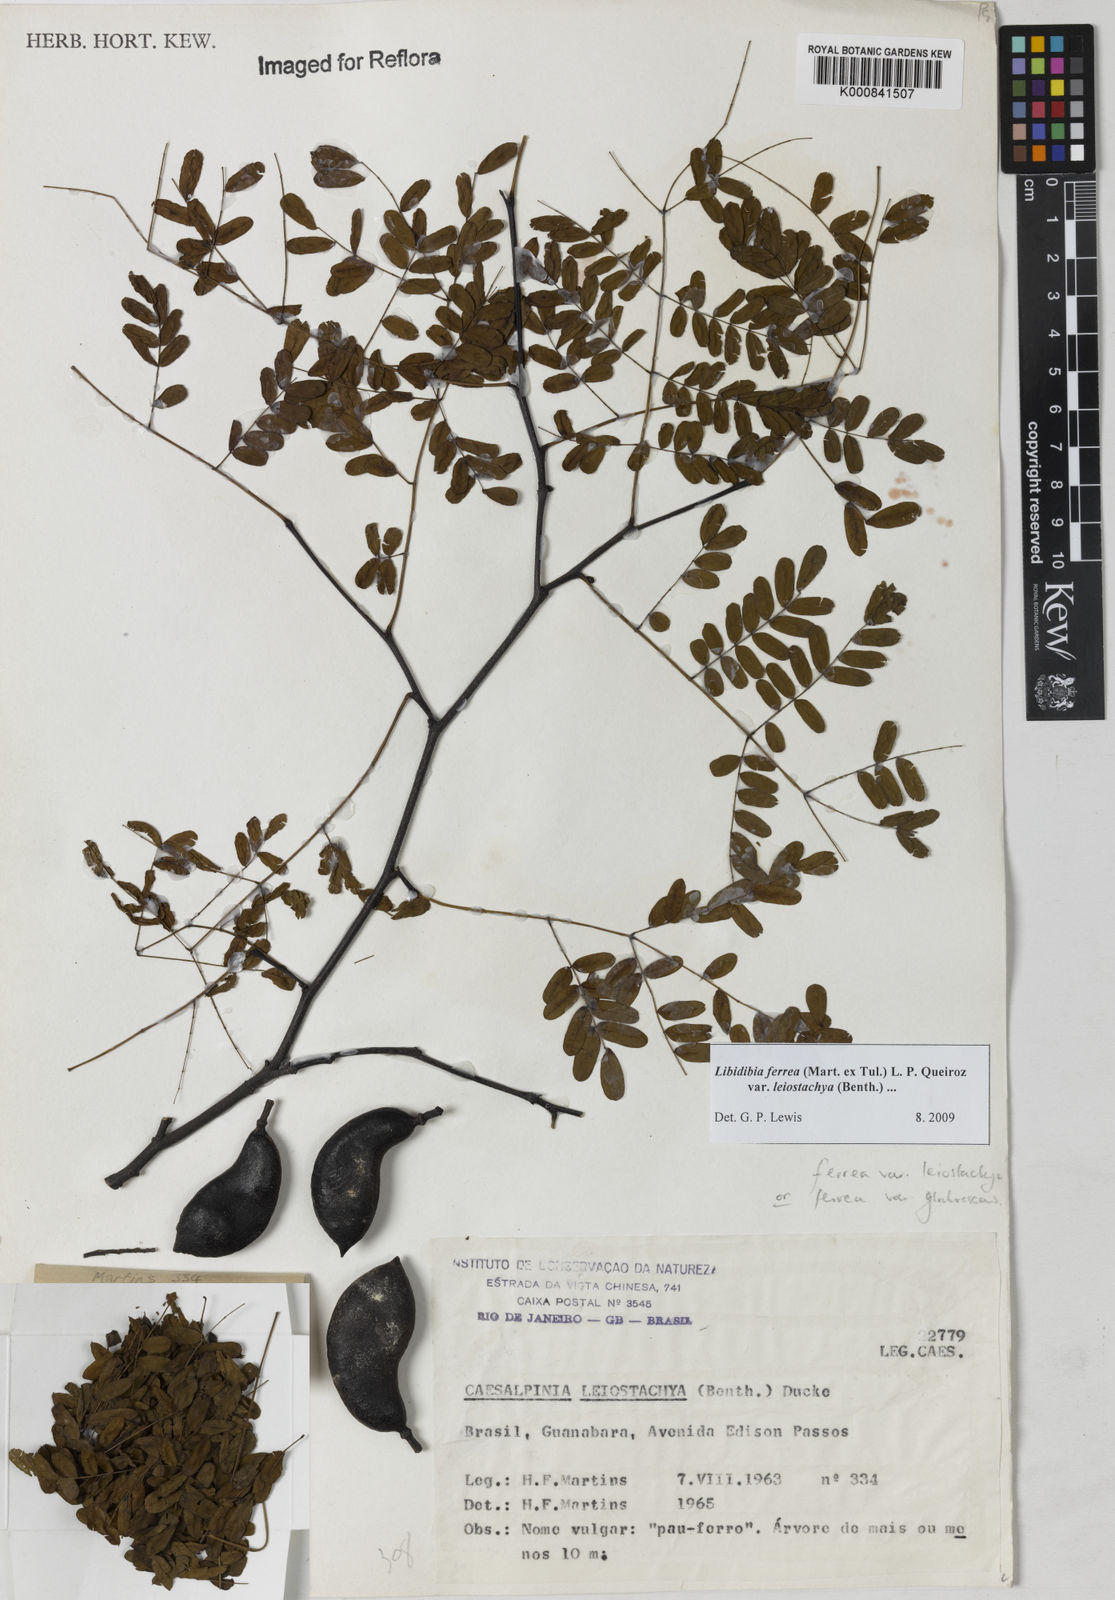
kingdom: Plantae
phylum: Tracheophyta
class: Magnoliopsida
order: Fabales
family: Fabaceae
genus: Libidibia
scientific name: Libidibia ferrea
